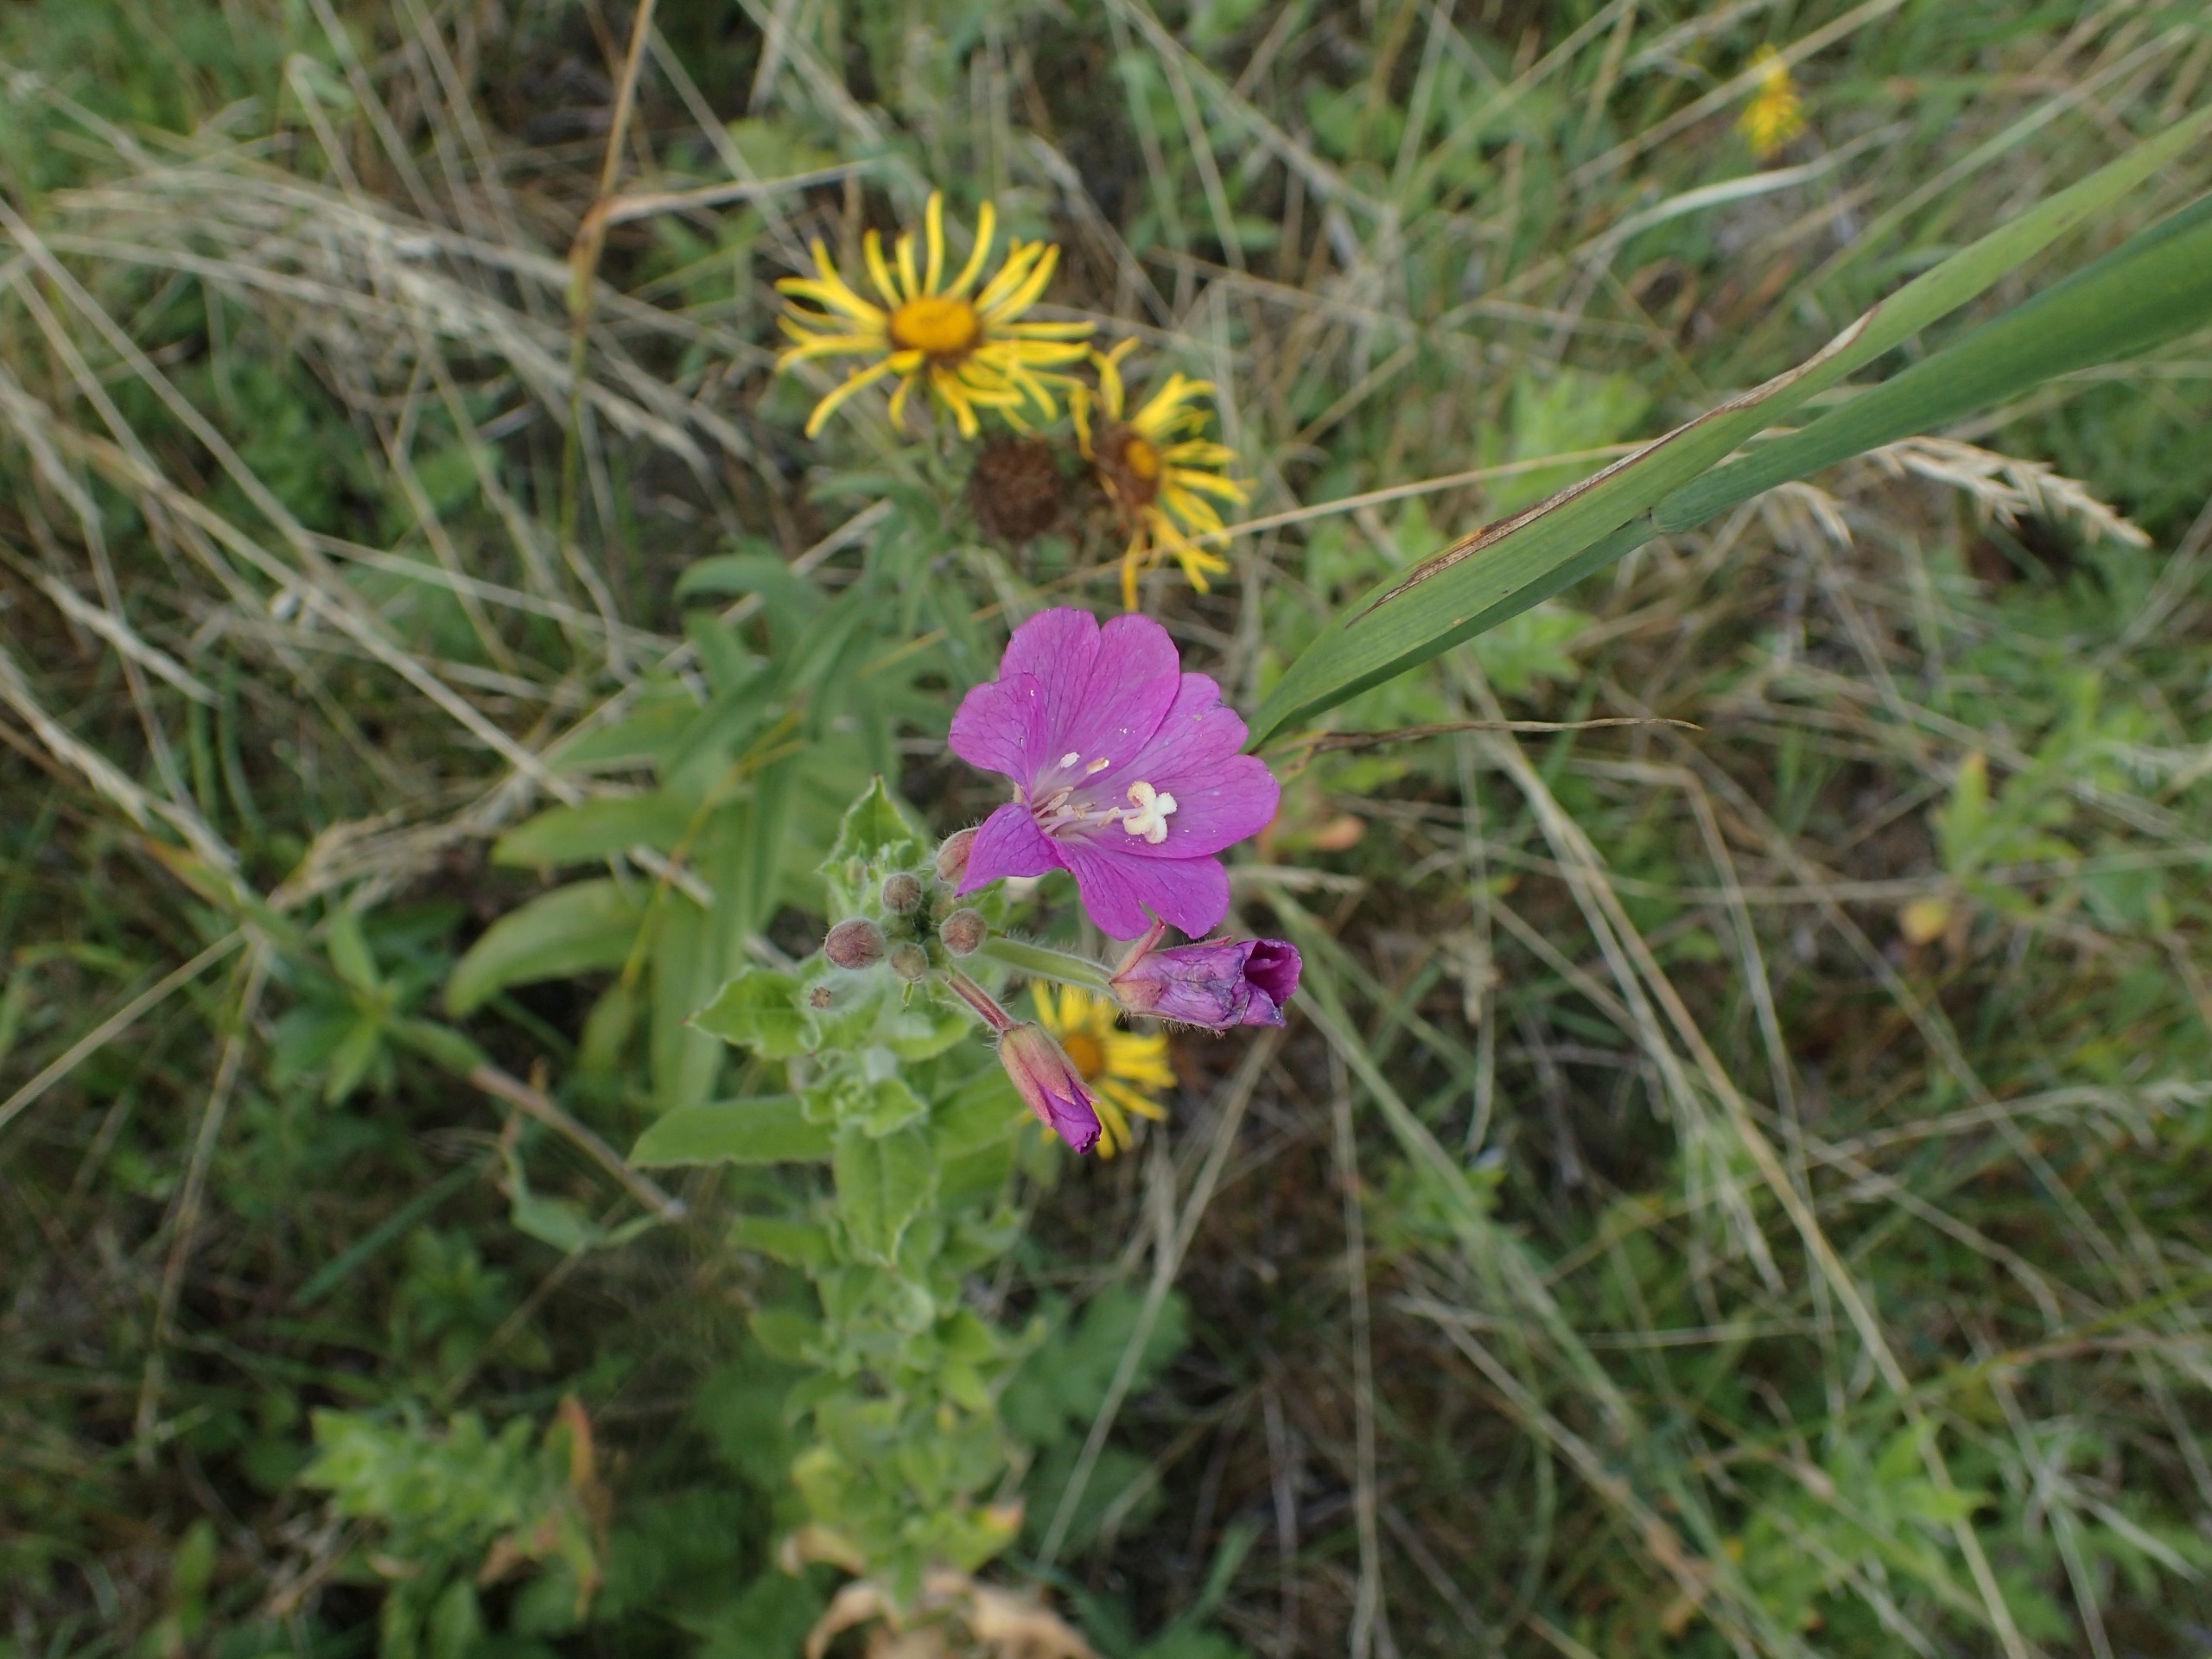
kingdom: Plantae
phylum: Tracheophyta
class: Magnoliopsida
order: Myrtales
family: Onagraceae
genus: Epilobium
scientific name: Epilobium hirsutum
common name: Lådden dueurt
